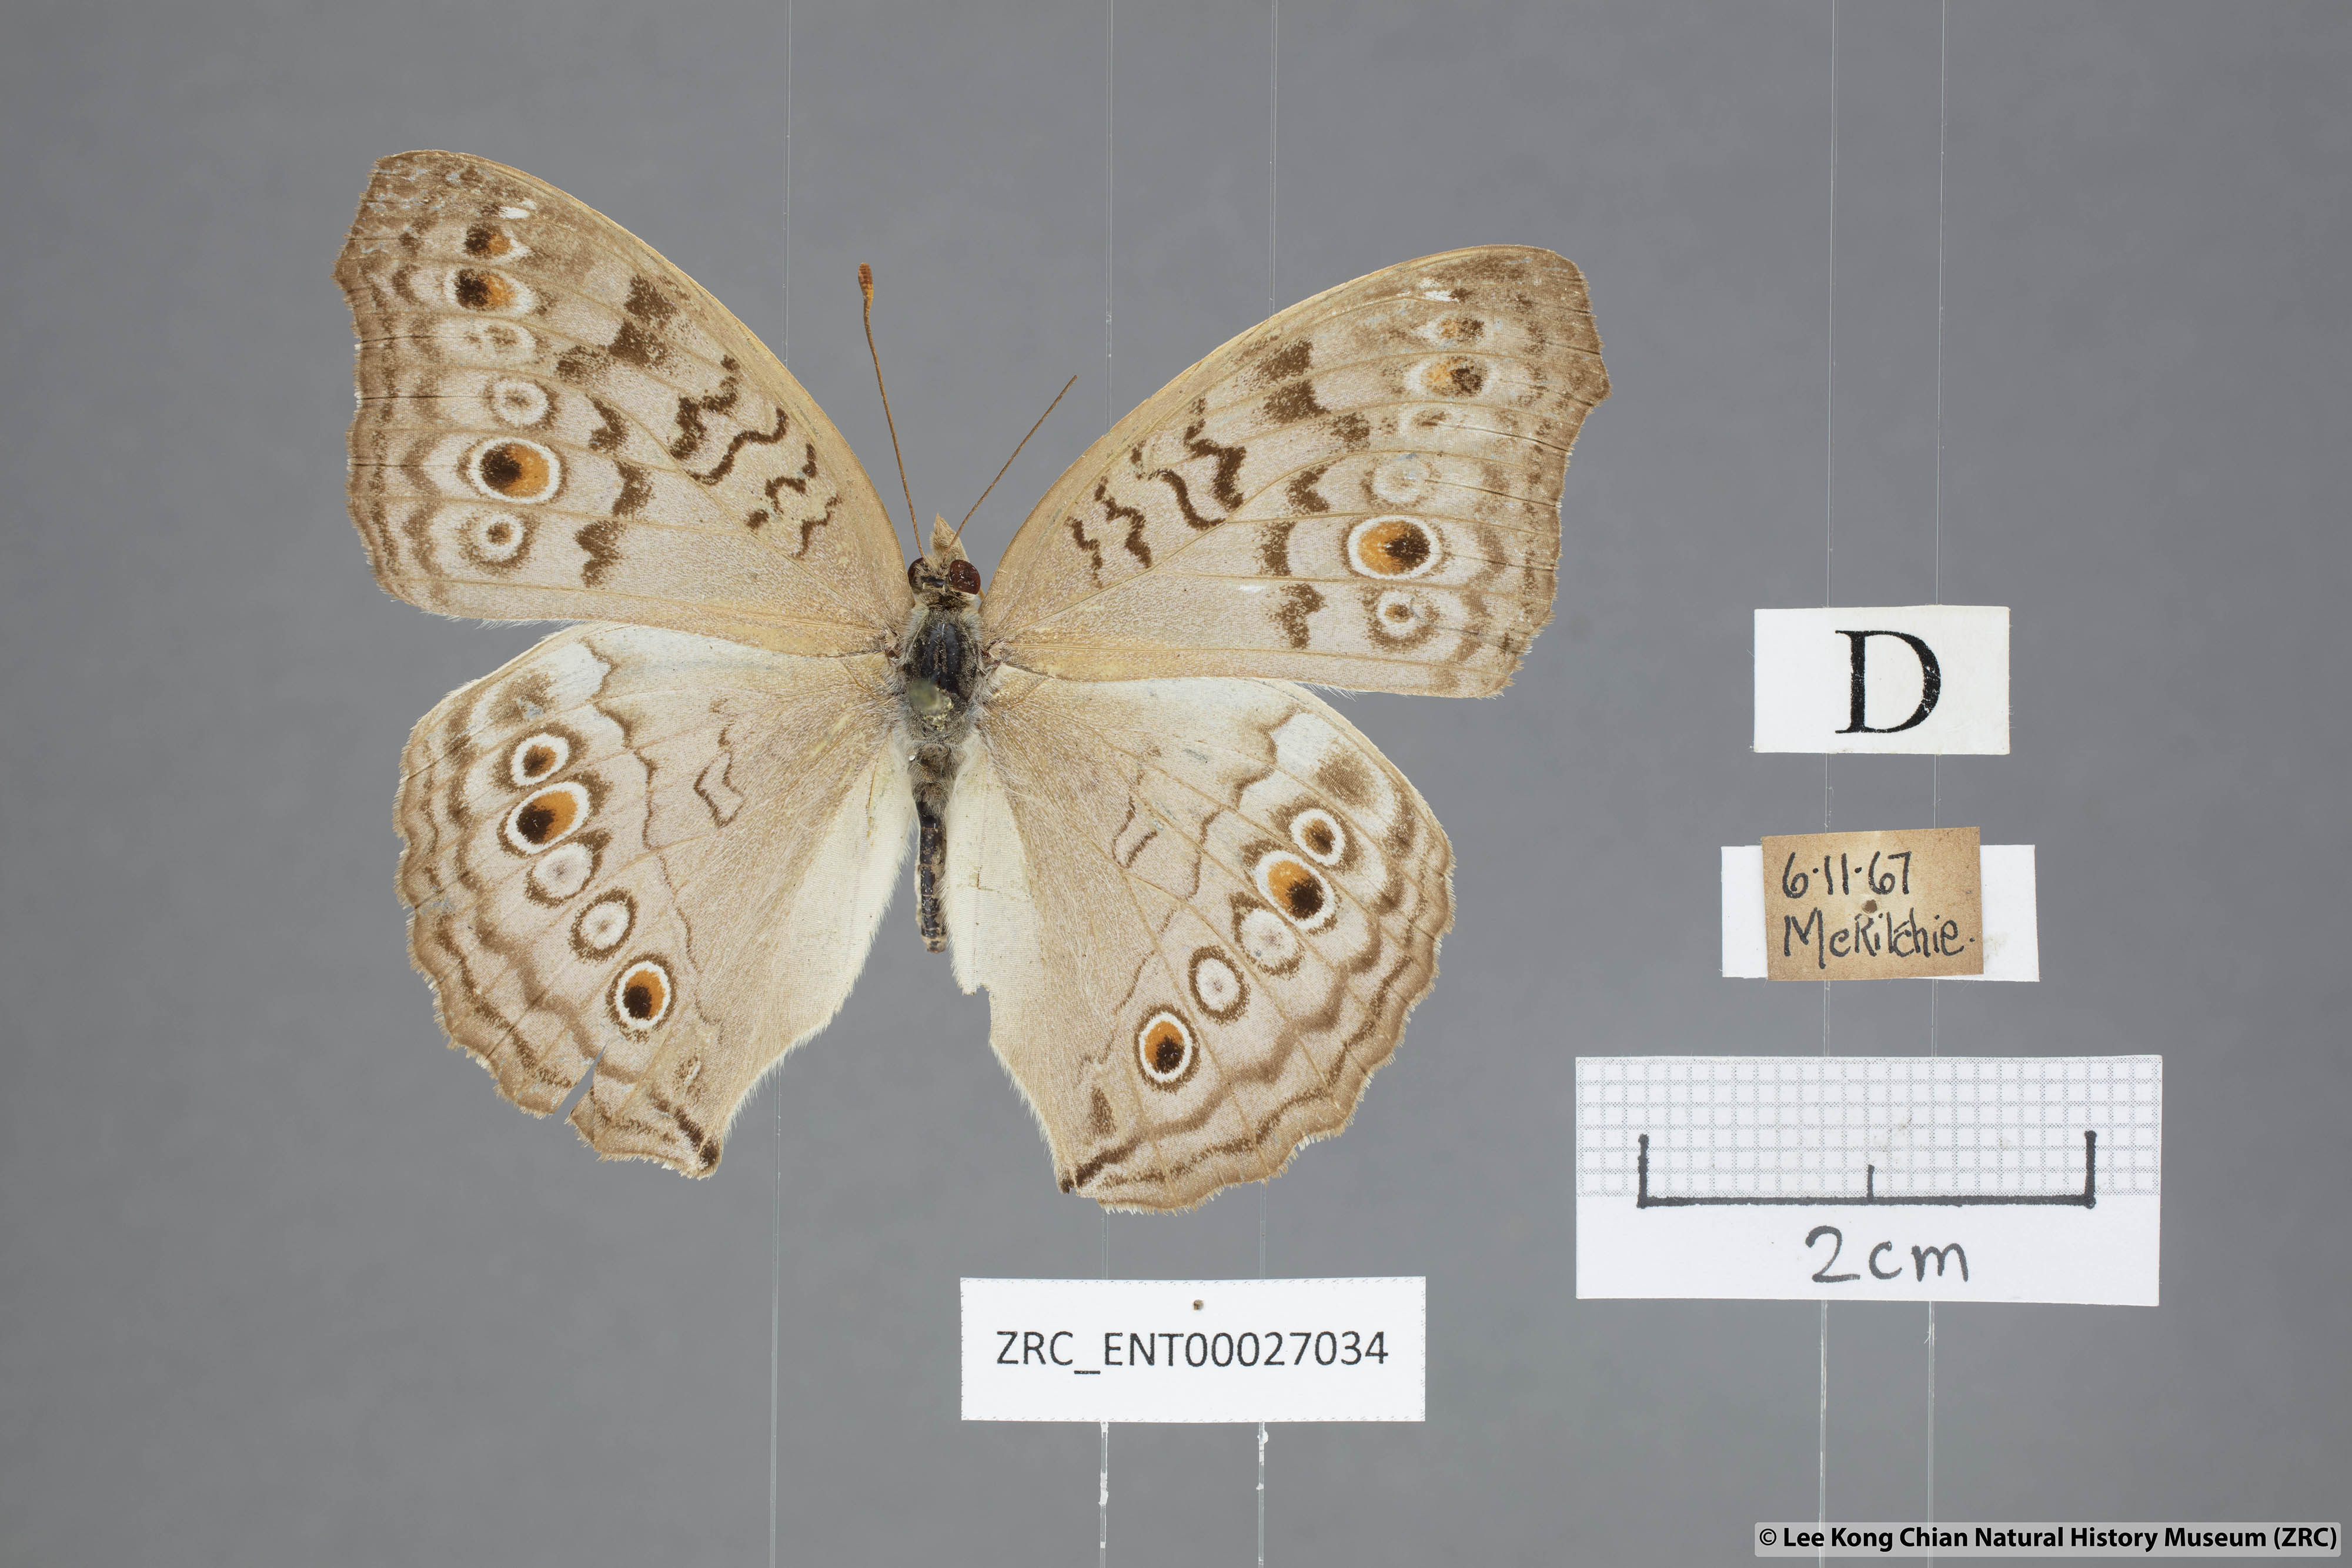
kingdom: Animalia
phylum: Arthropoda
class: Insecta
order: Lepidoptera
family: Nymphalidae
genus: Junonia
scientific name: Junonia atlites
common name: Grey pansy
